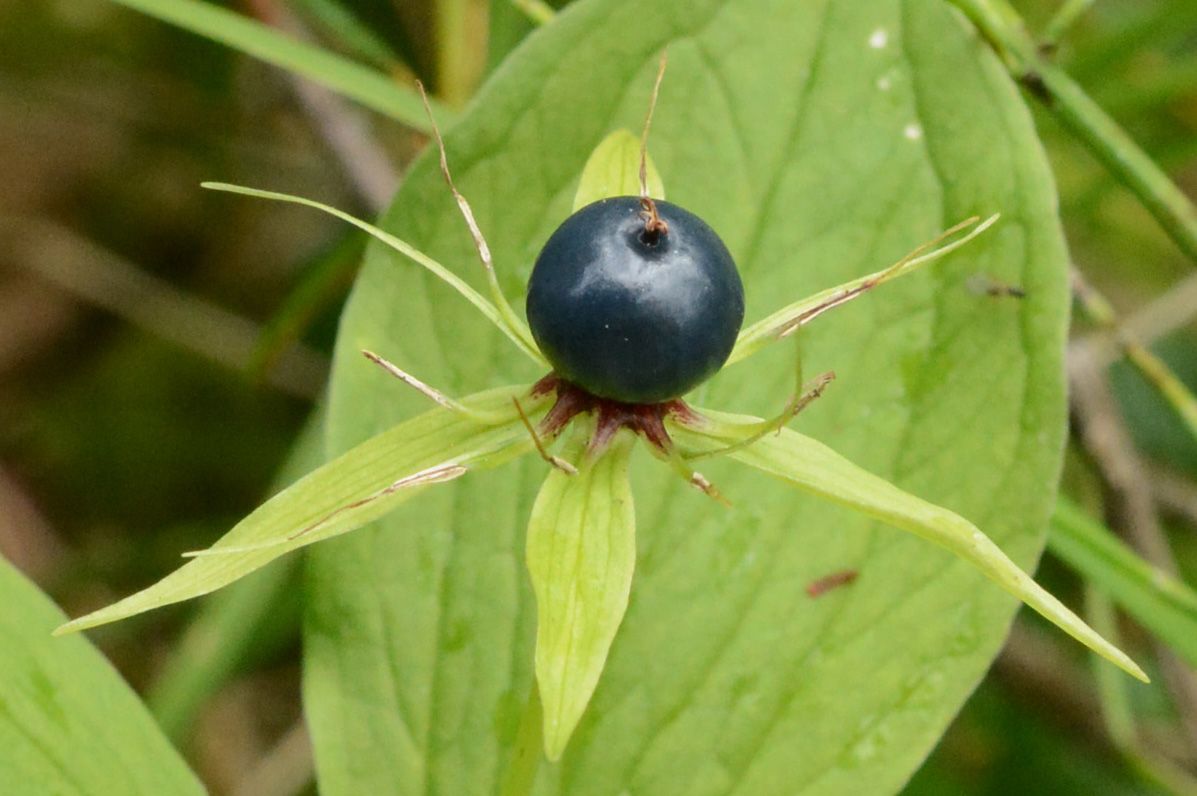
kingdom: Plantae
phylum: Tracheophyta
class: Liliopsida
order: Liliales
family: Melanthiaceae
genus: Paris
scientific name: Paris quadrifolia
